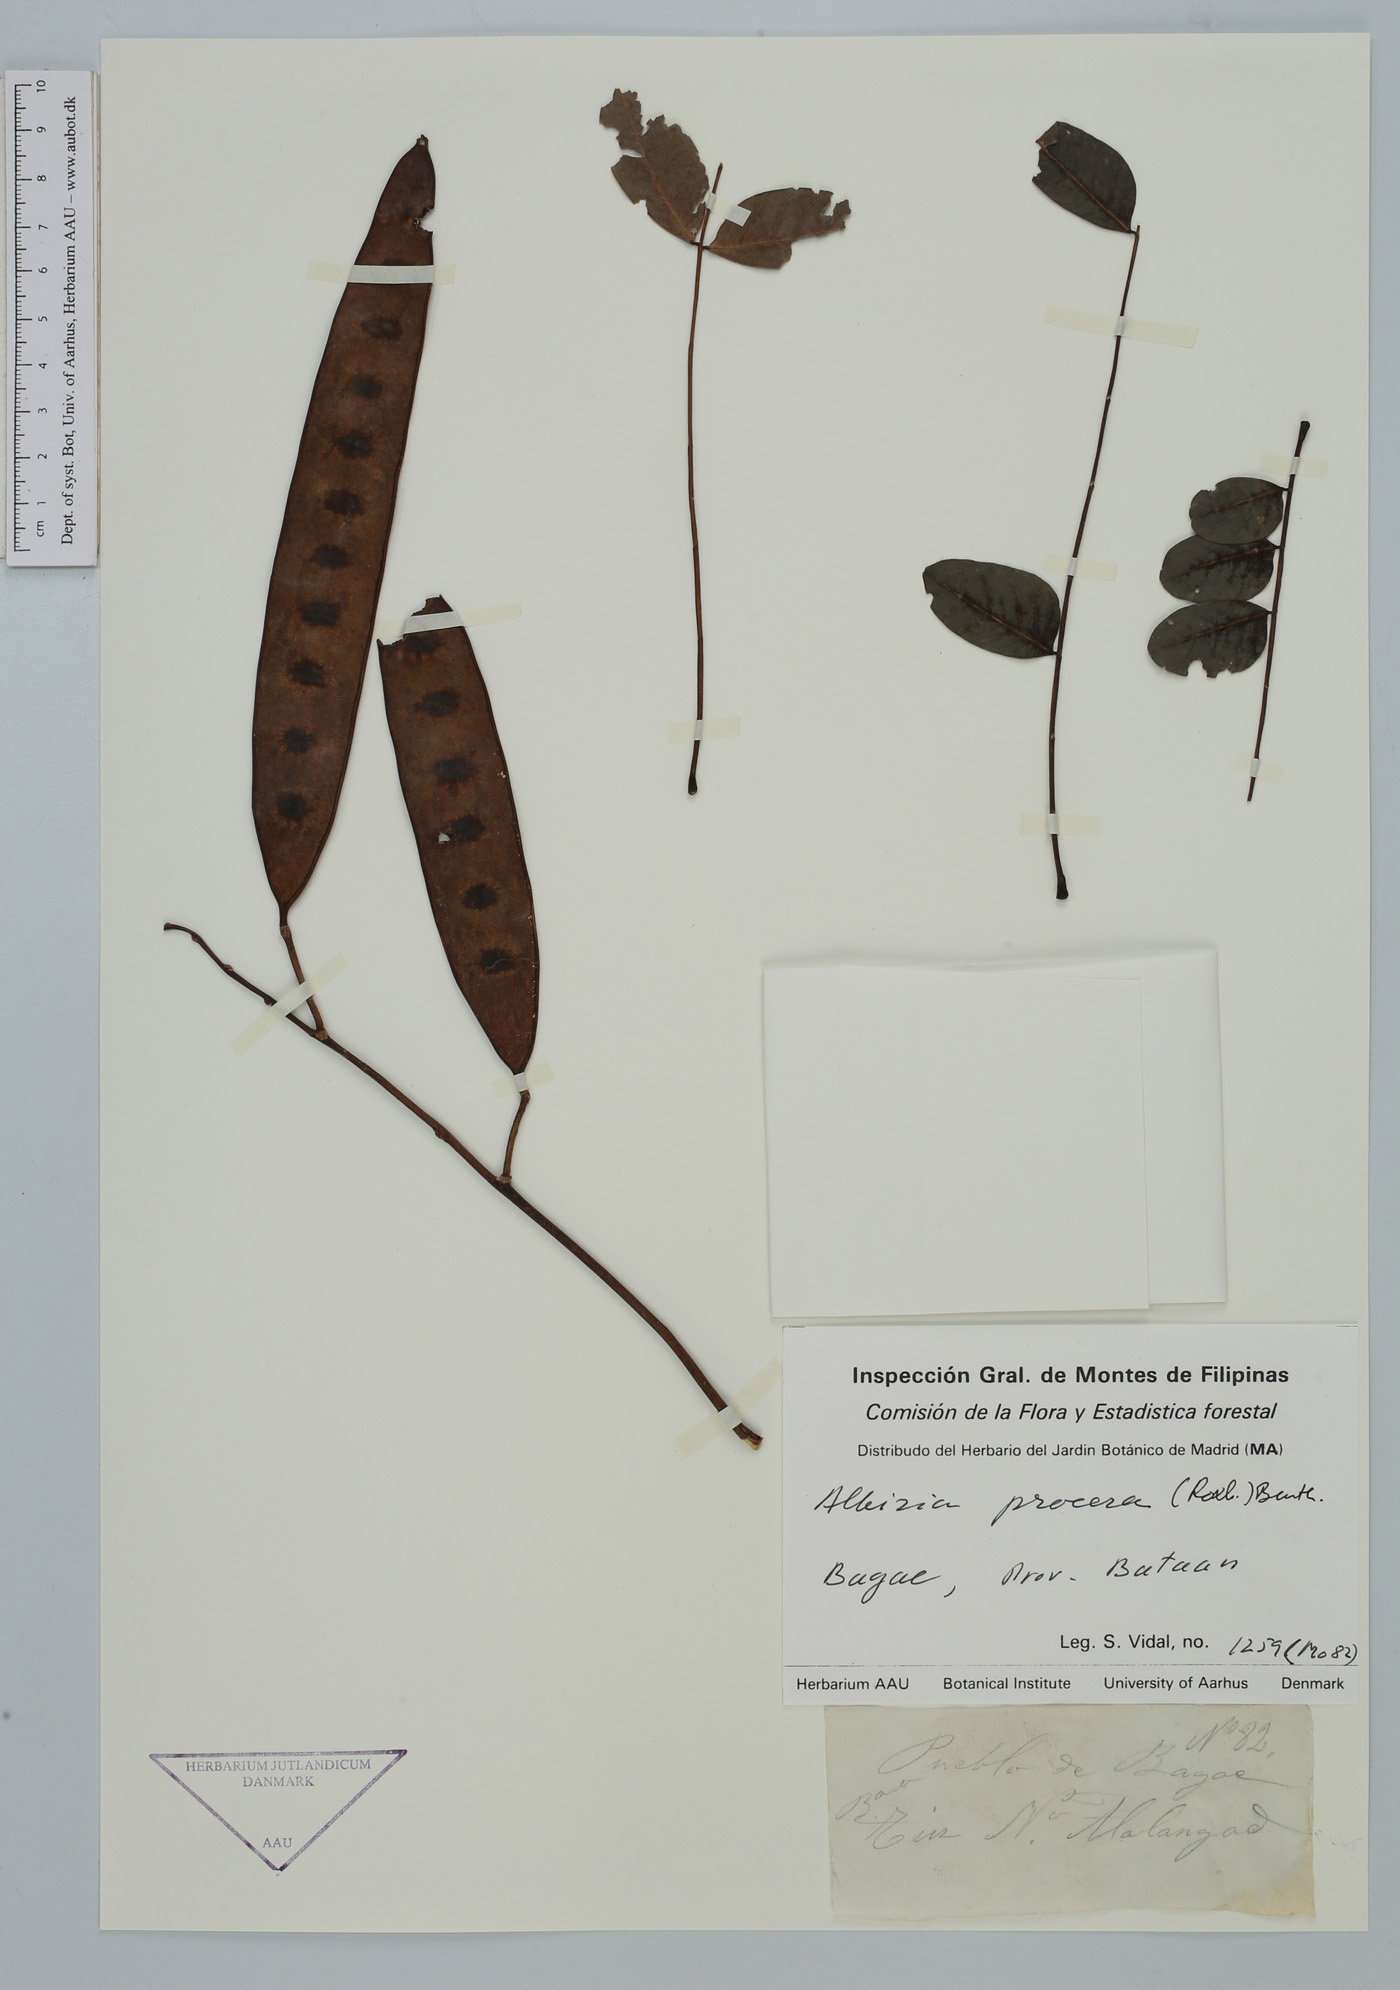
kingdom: Plantae
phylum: Tracheophyta
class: Magnoliopsida
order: Fabales
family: Fabaceae
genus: Albizia
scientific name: Albizia procera
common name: Tall albizia
